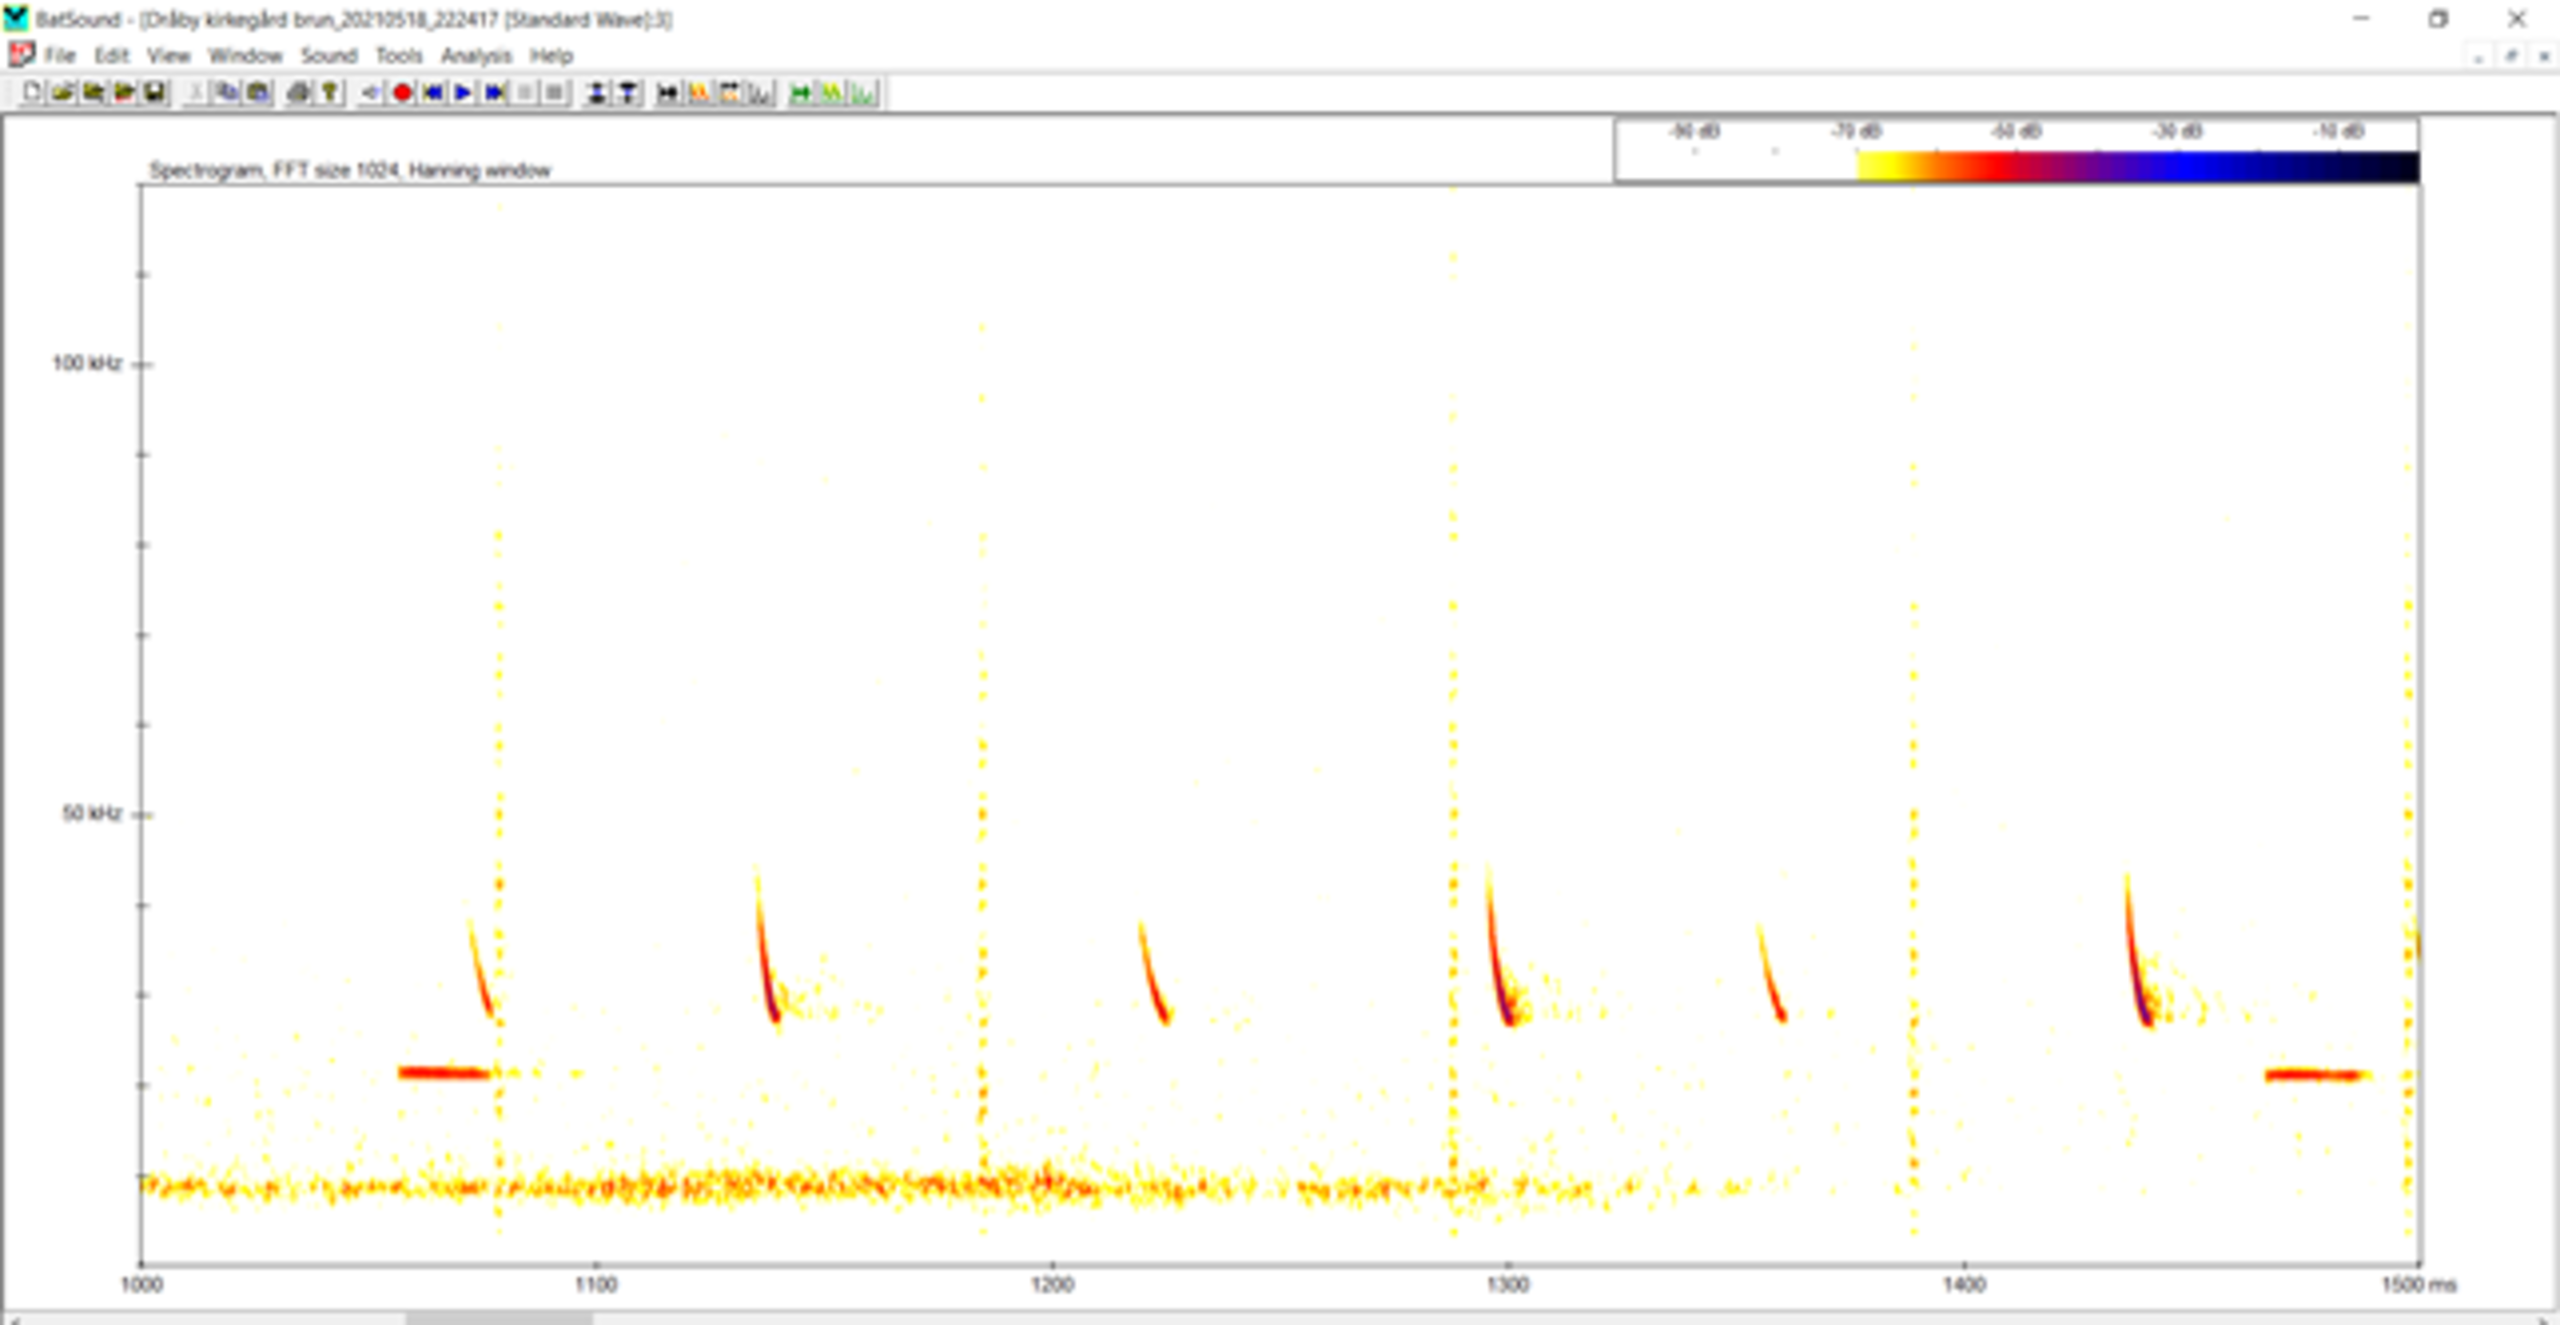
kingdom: Animalia
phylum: Chordata
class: Mammalia
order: Chiroptera
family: Vespertilionidae
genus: Nyctalus
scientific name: Nyctalus noctula
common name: Brunflagermus
